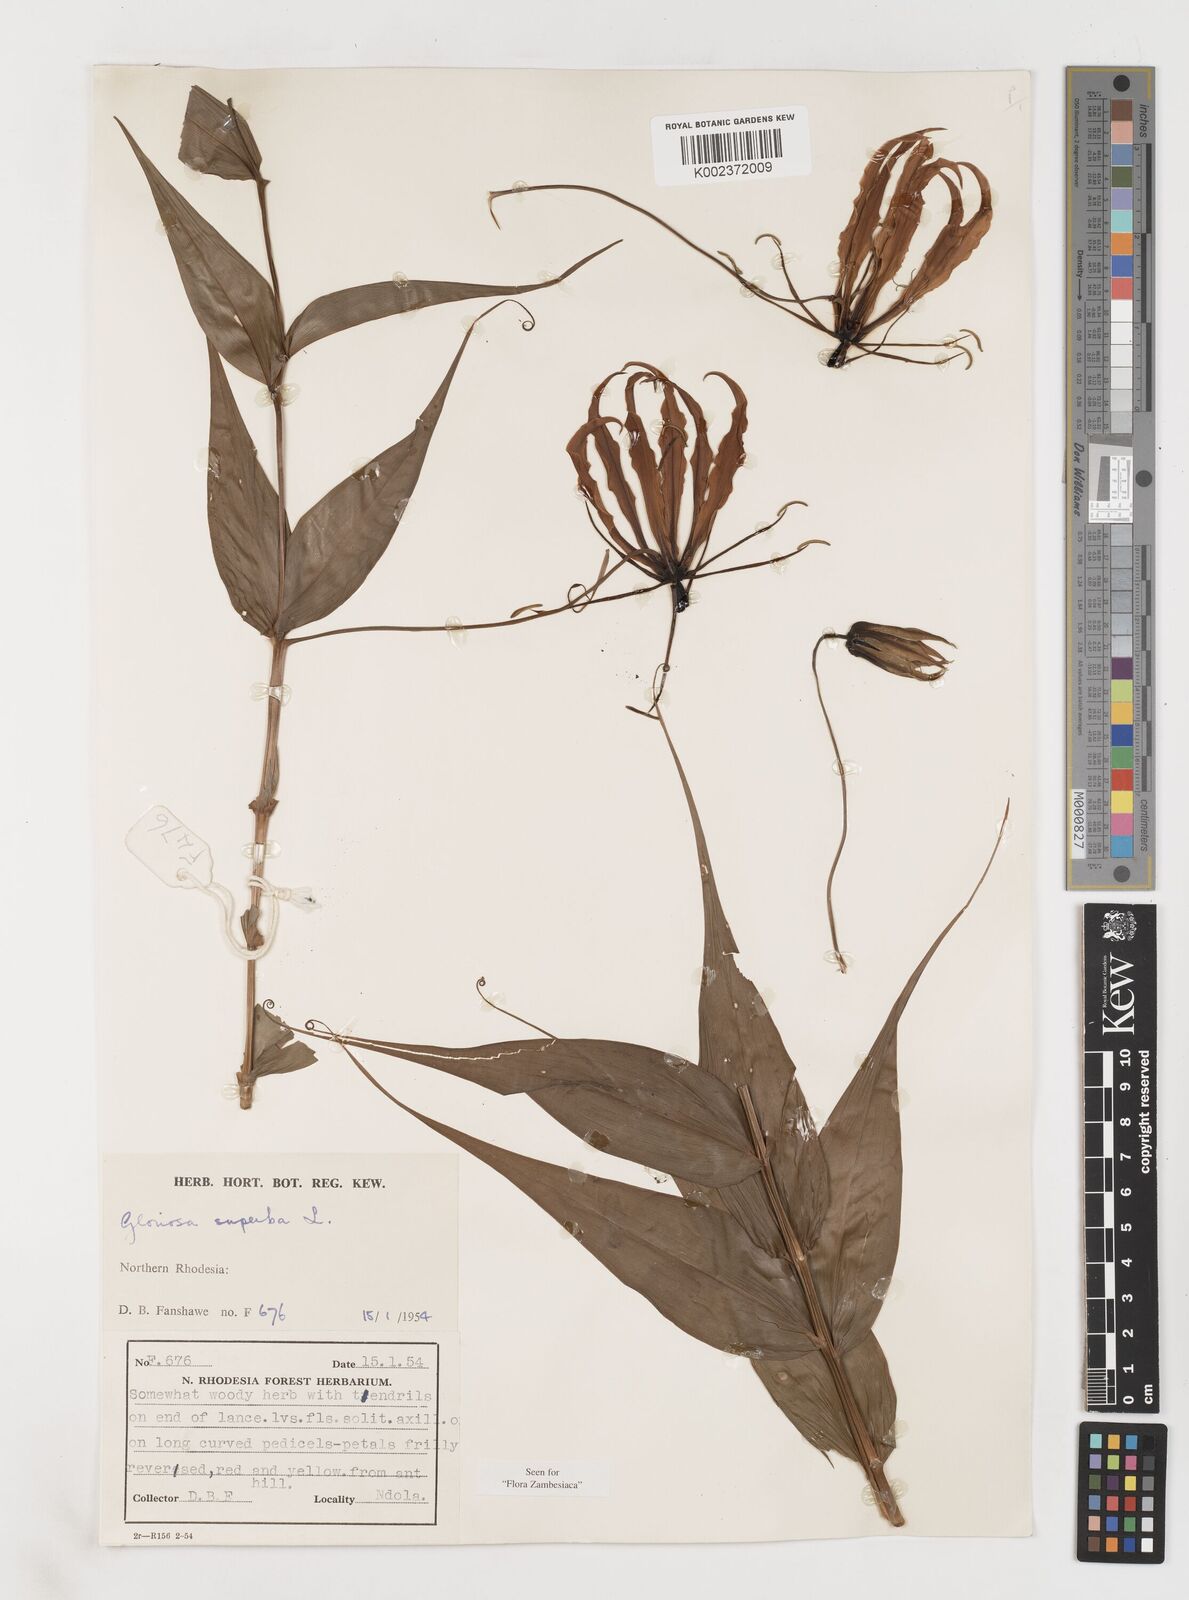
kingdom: Plantae
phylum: Tracheophyta
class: Liliopsida
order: Liliales
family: Colchicaceae
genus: Gloriosa
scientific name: Gloriosa superba
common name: Flame lily
